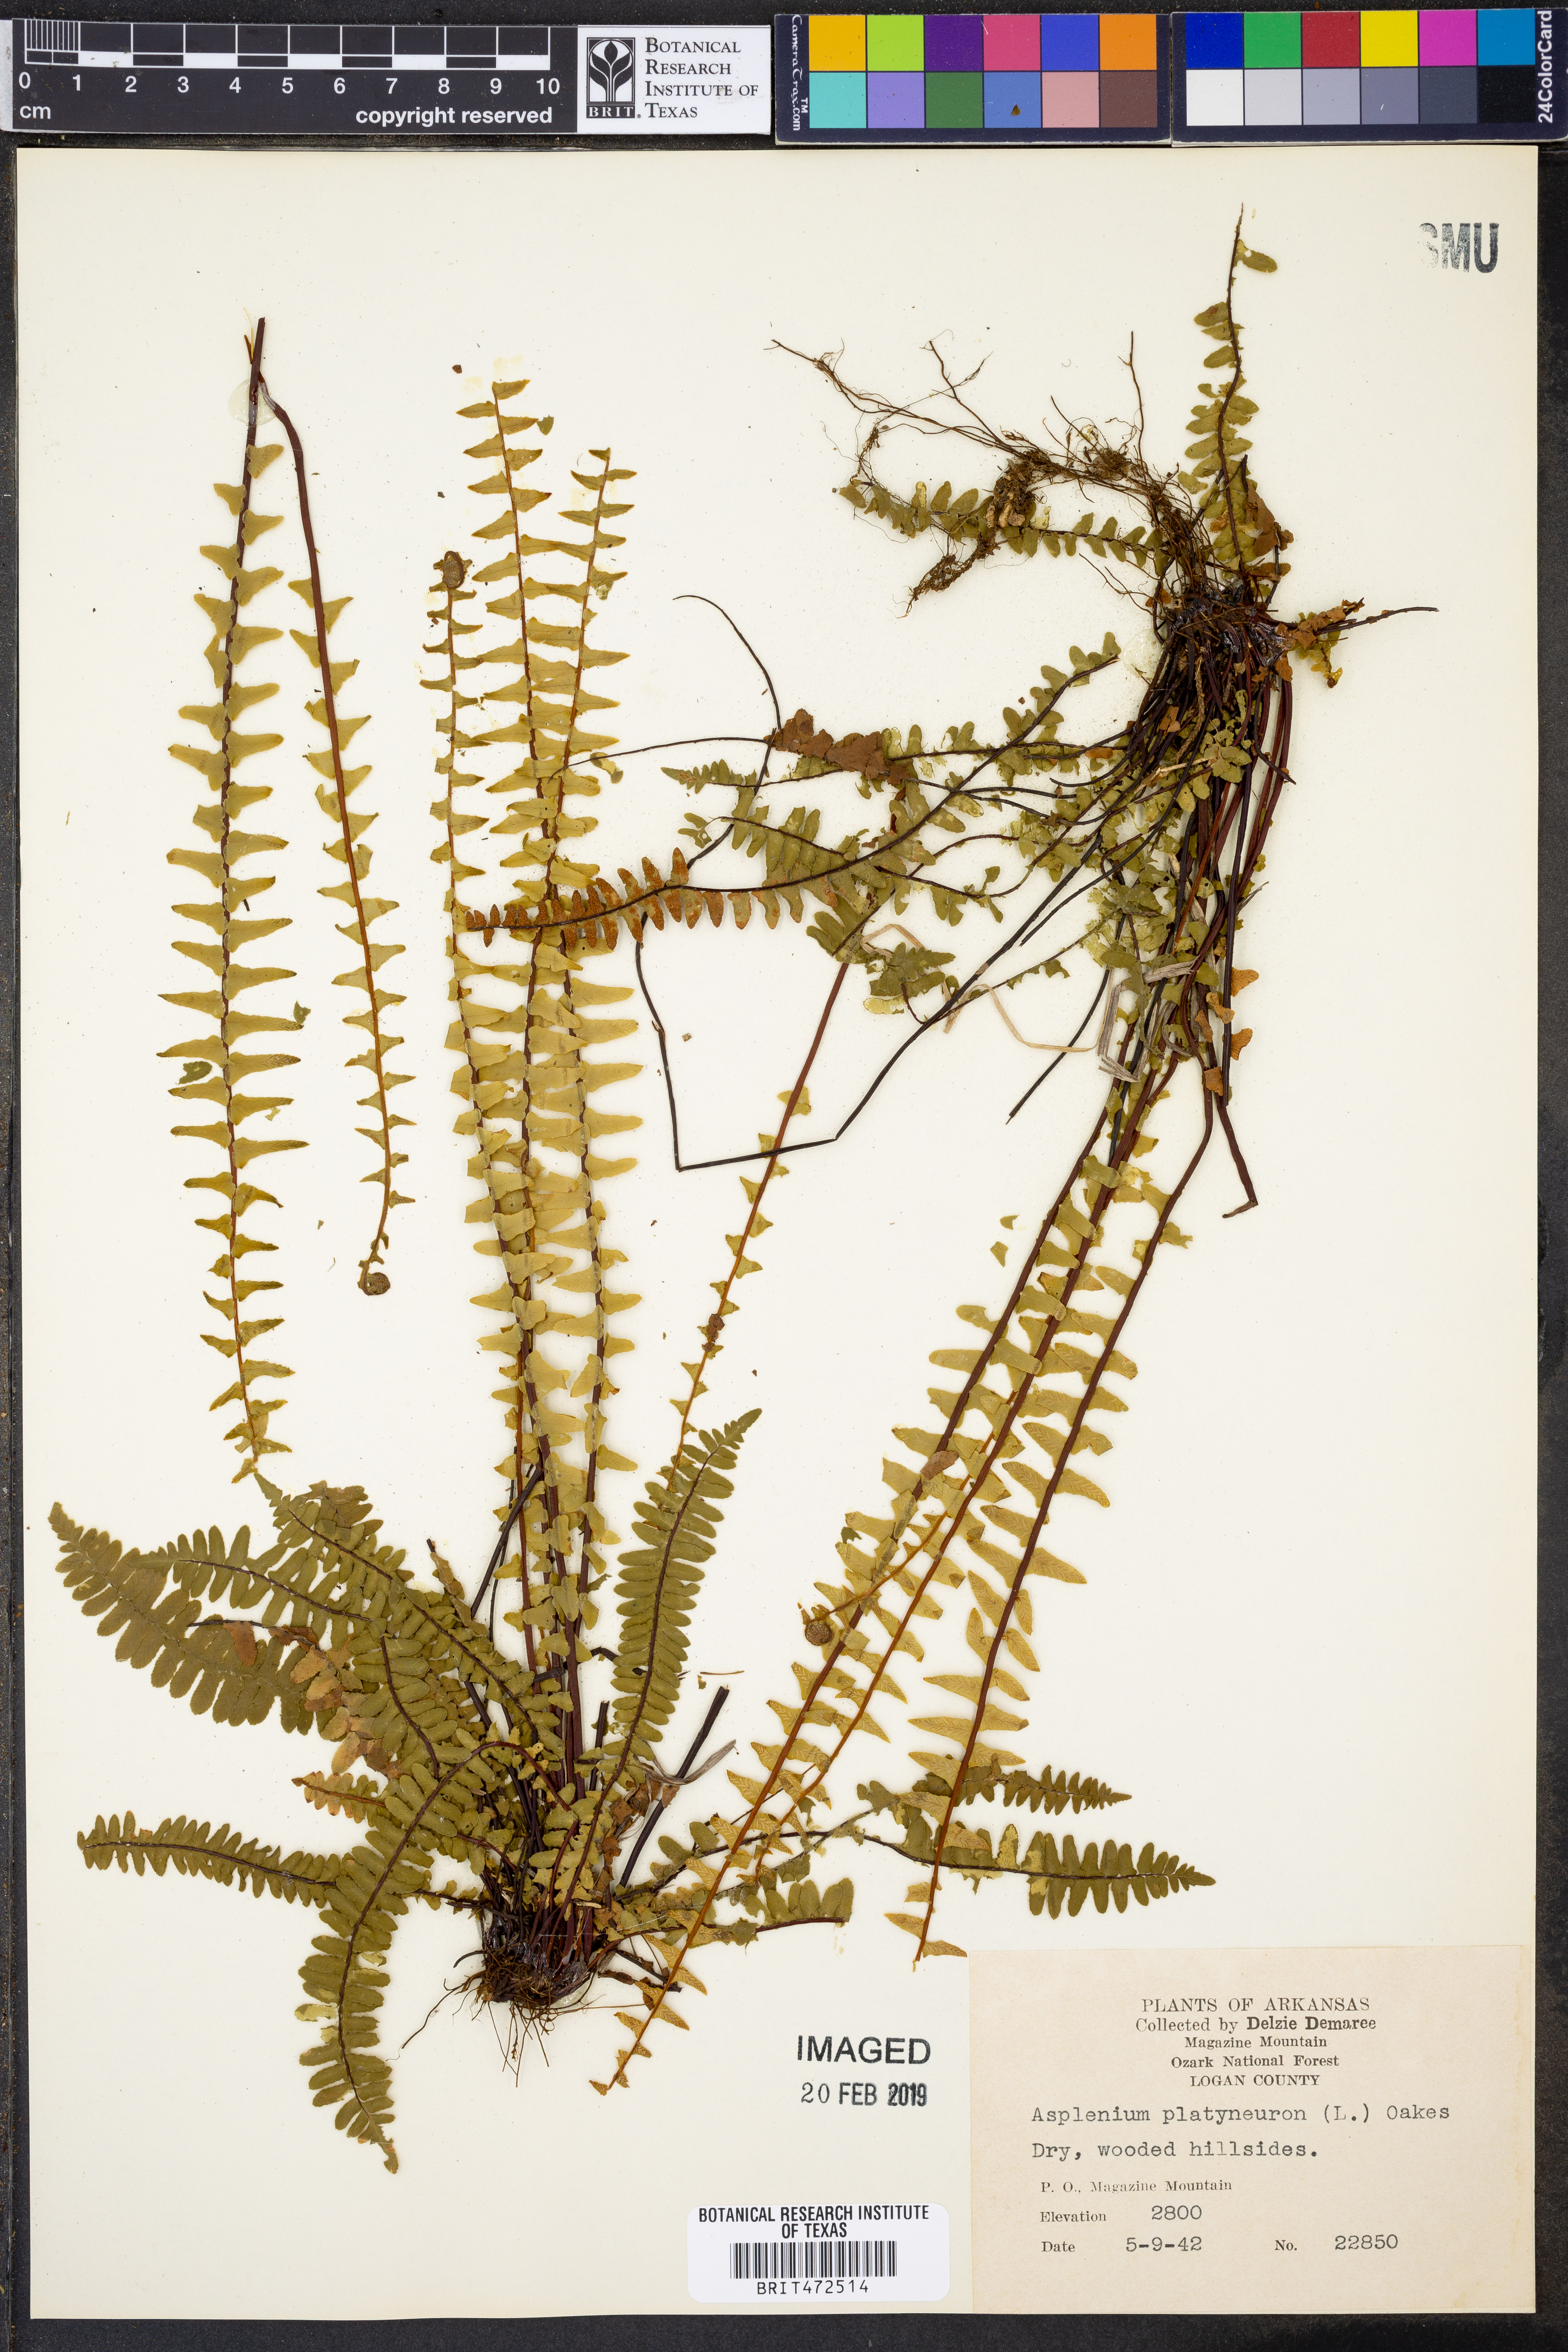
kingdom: Plantae
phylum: Tracheophyta
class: Polypodiopsida
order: Polypodiales
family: Aspleniaceae
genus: Asplenium
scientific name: Asplenium platyneuron
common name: Ebony spleenwort
